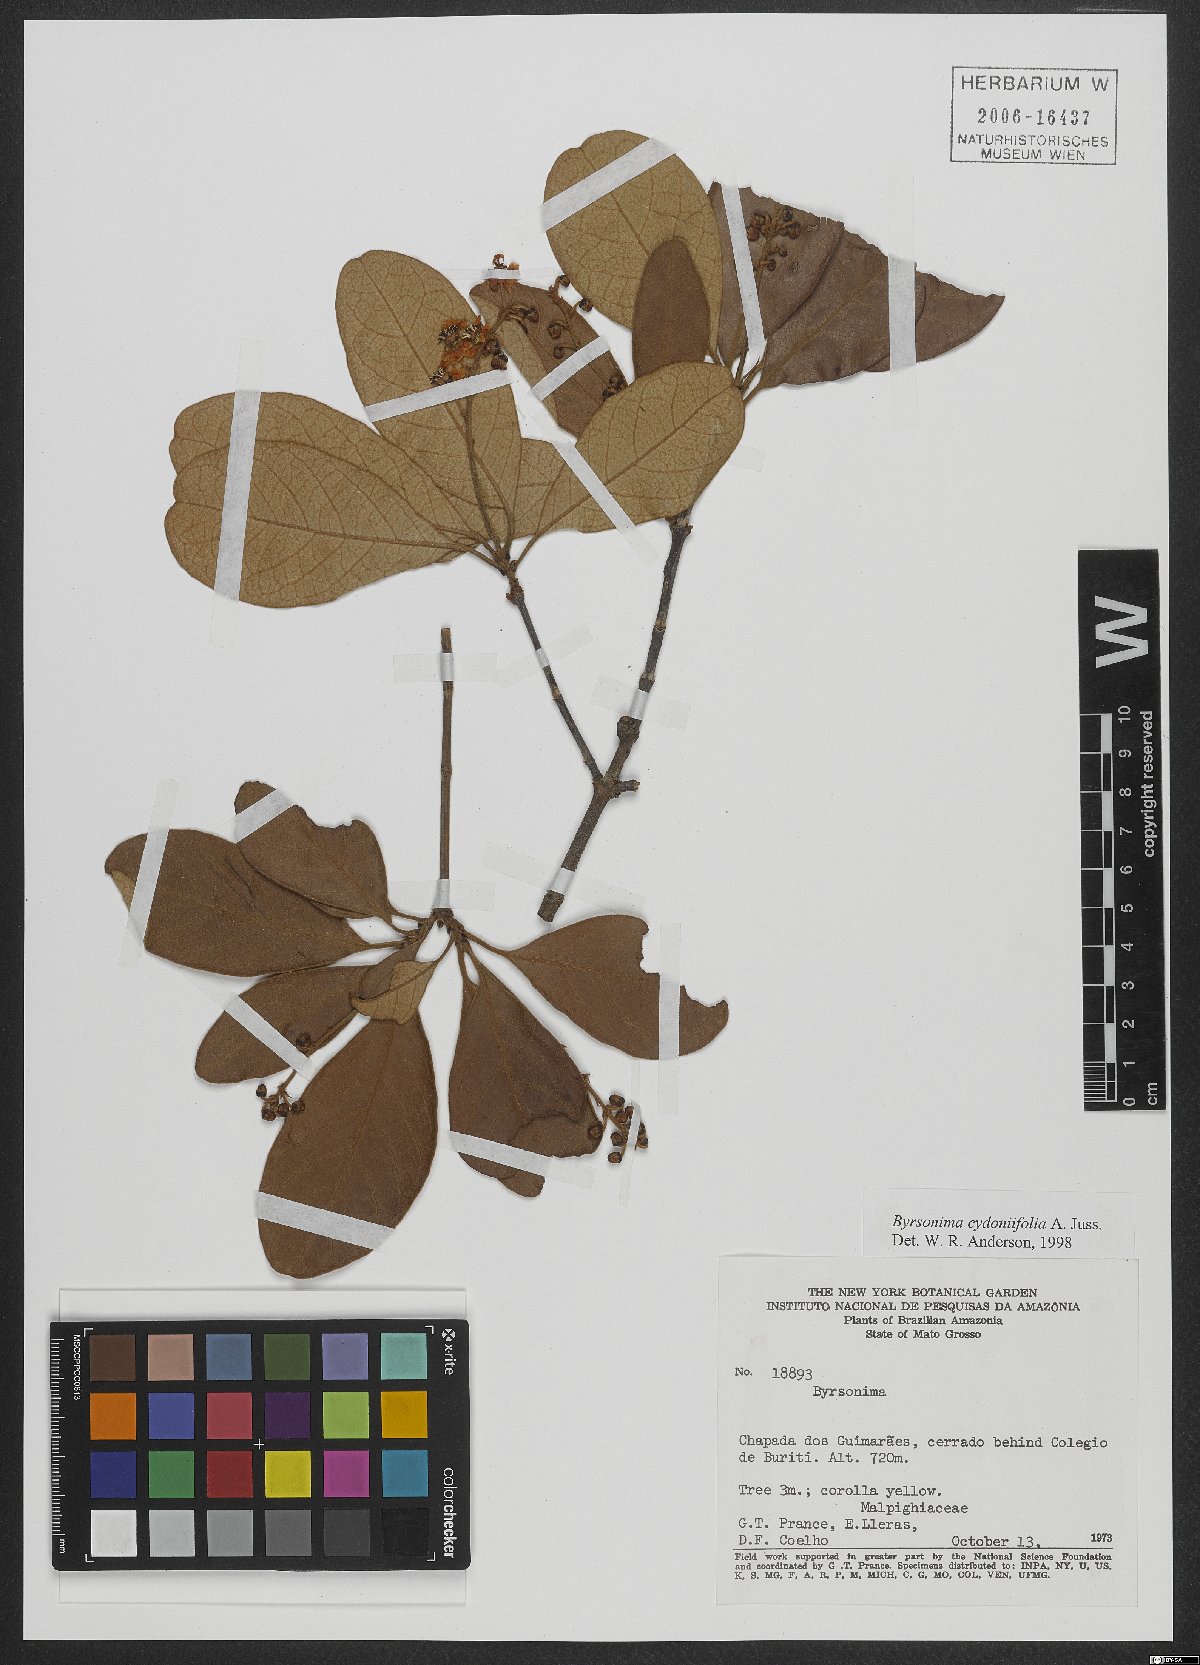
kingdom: Plantae
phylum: Tracheophyta
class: Magnoliopsida
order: Malpighiales
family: Malpighiaceae
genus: Byrsonima
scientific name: Byrsonima cydoniifolia
